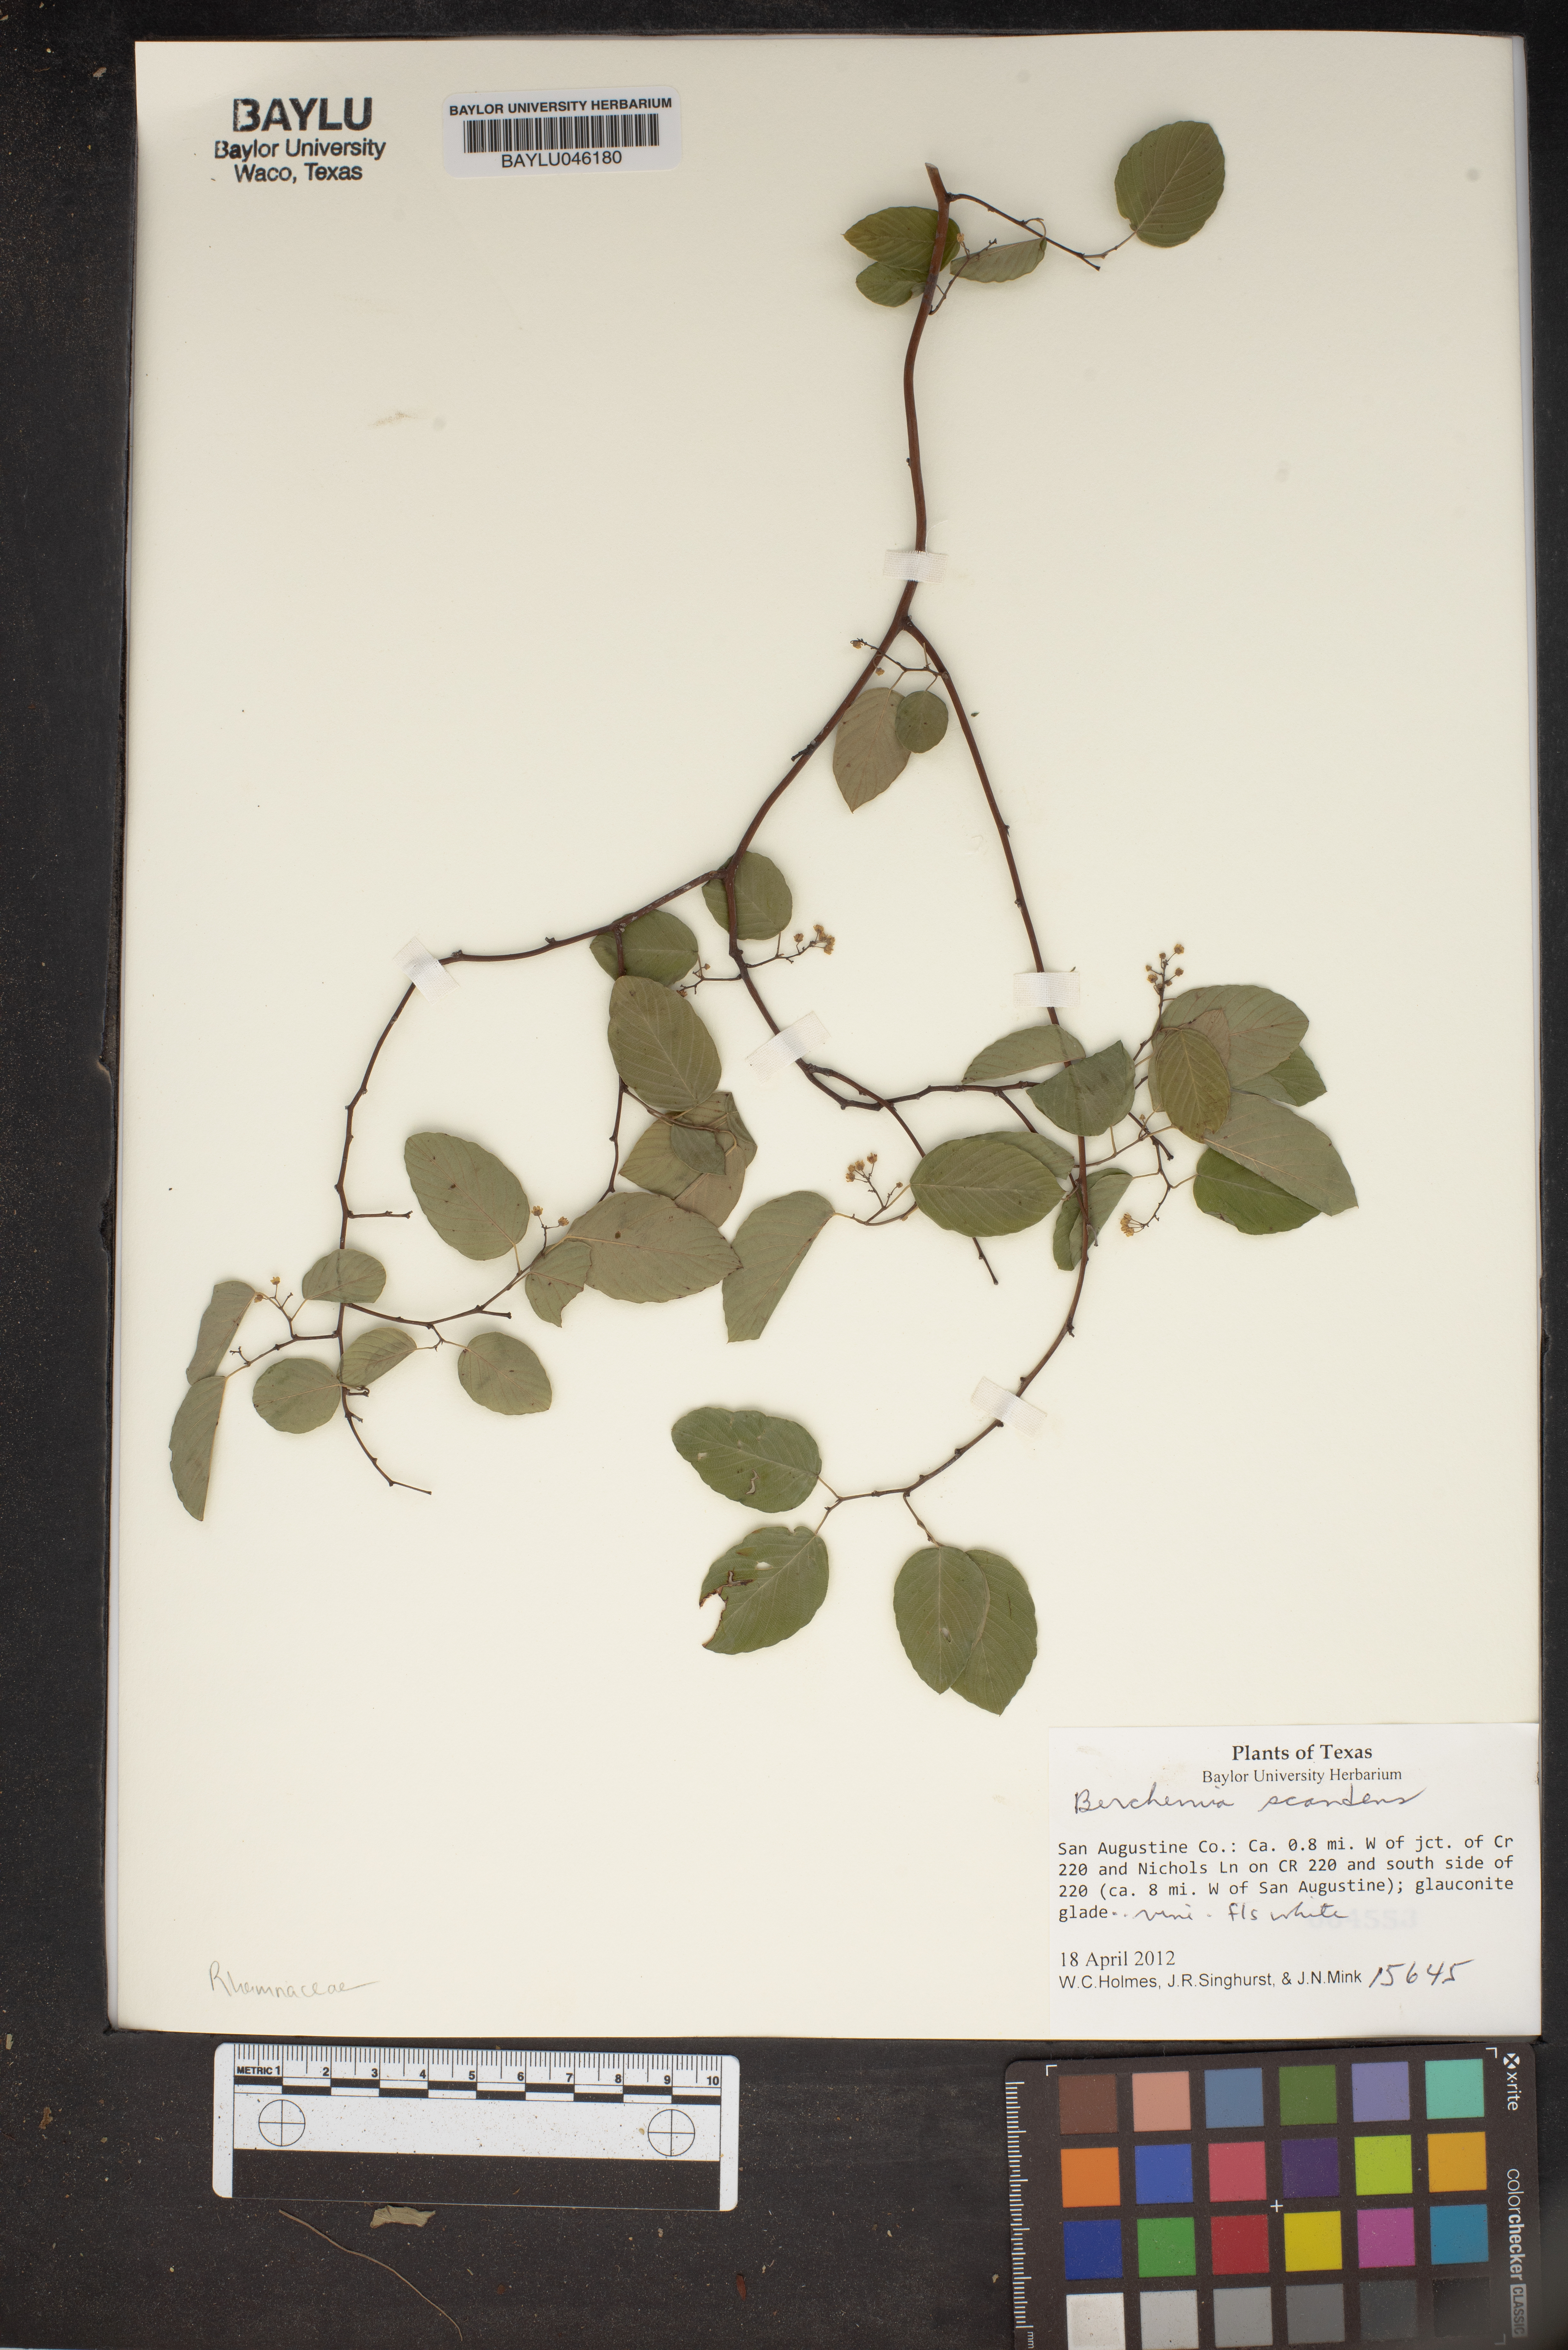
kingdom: Plantae
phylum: Tracheophyta
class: Magnoliopsida
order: Rosales
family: Rhamnaceae
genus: Berchemia
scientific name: Berchemia scandens
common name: Supplejack
